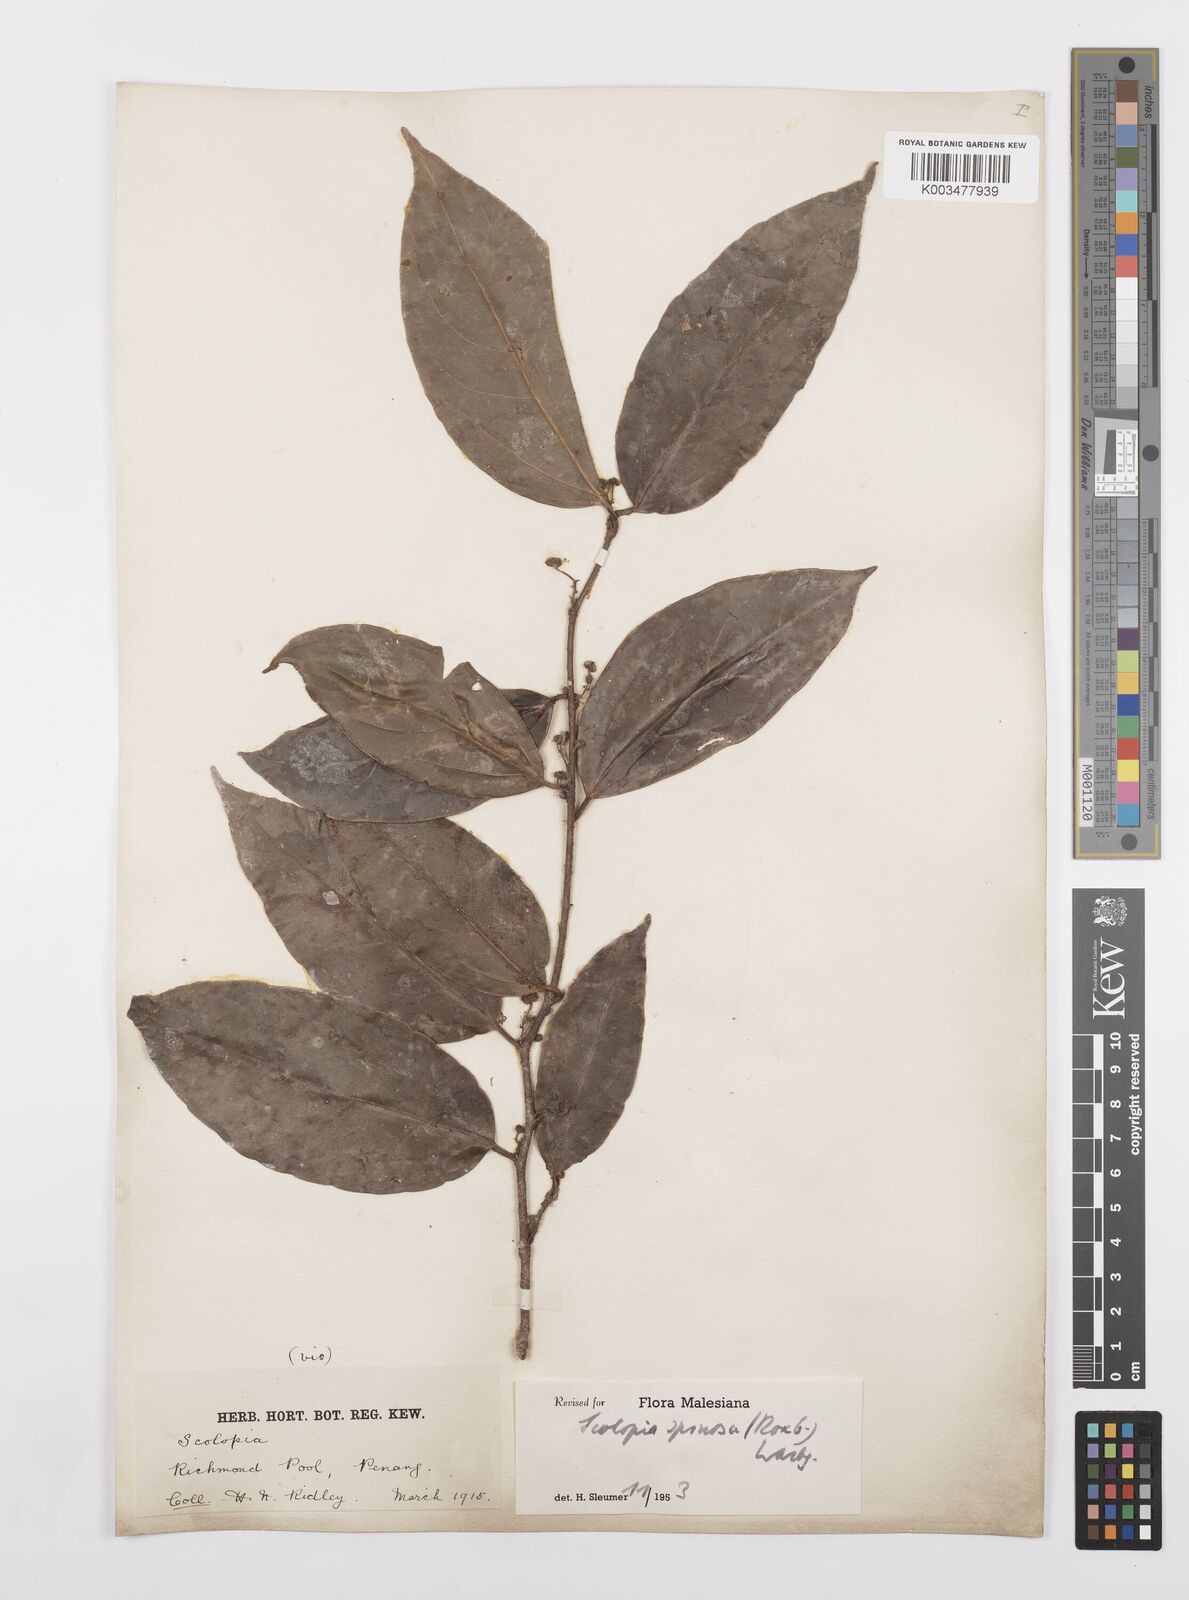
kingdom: Plantae
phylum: Tracheophyta
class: Magnoliopsida
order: Malpighiales
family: Salicaceae
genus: Scolopia
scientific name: Scolopia spinosa
